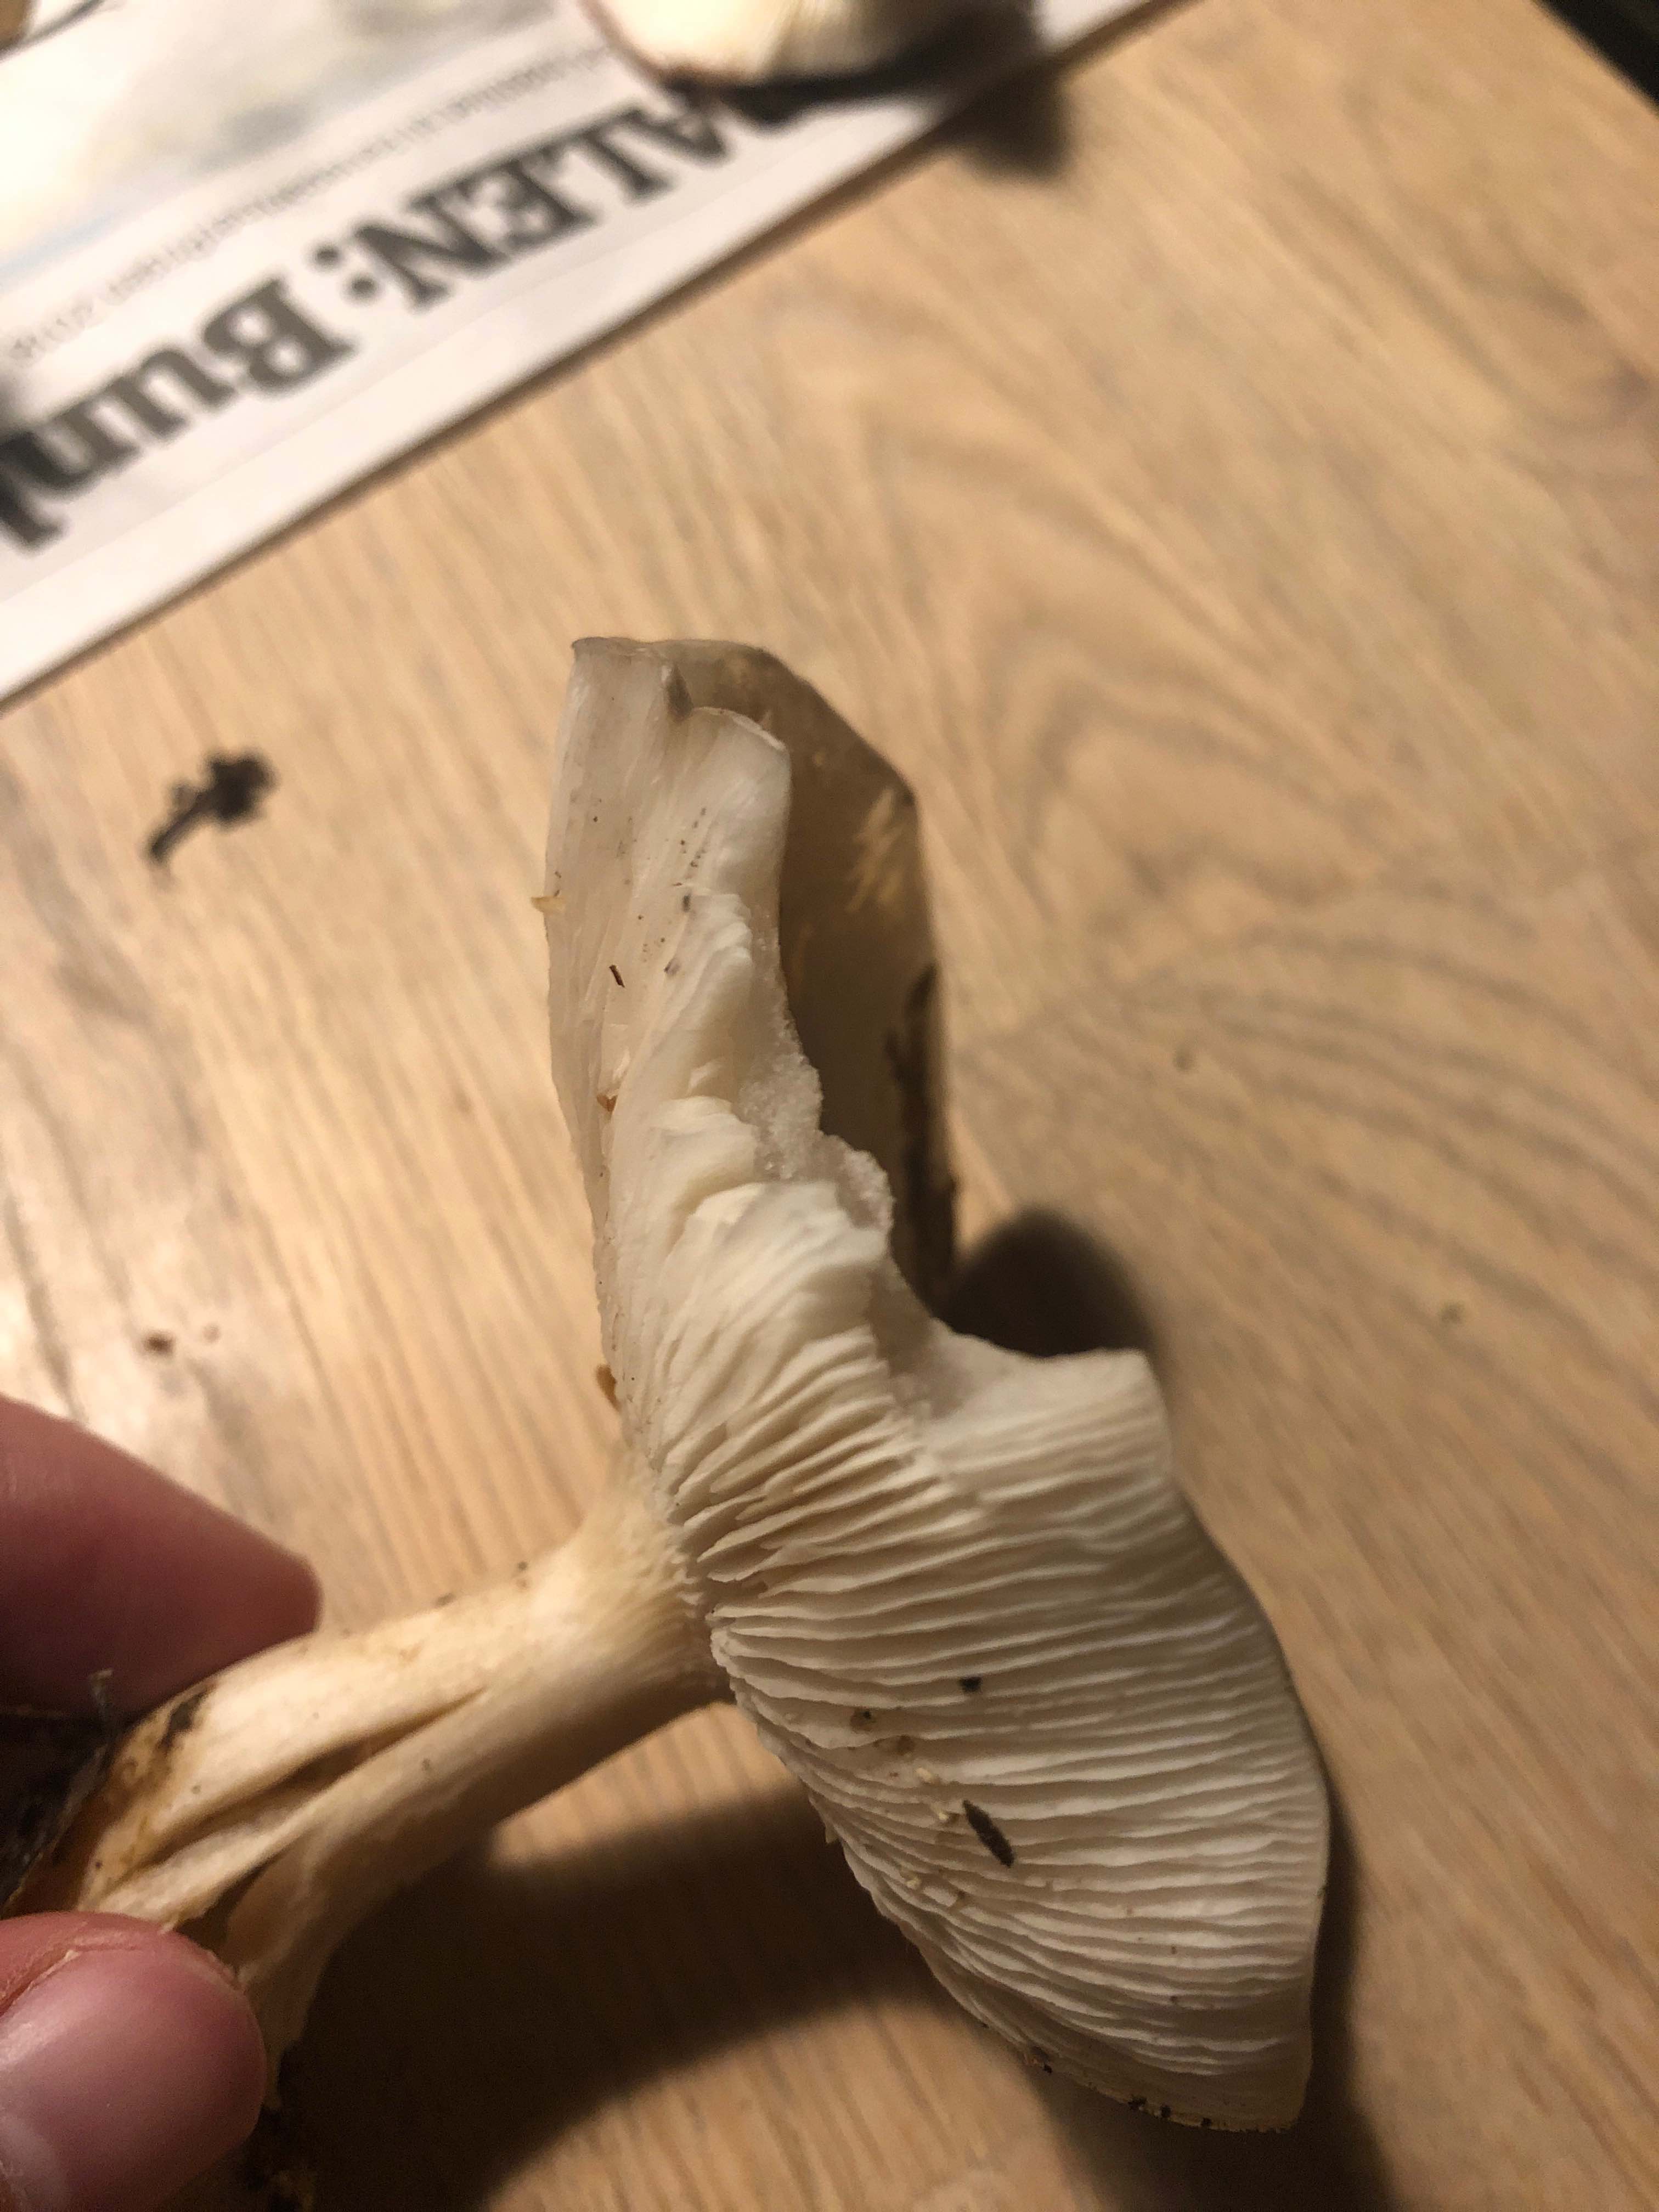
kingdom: Fungi
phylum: Basidiomycota
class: Agaricomycetes
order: Agaricales
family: Tricholomataceae
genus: Clitocybe
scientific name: Clitocybe nebularis
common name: tåge-tragthat
